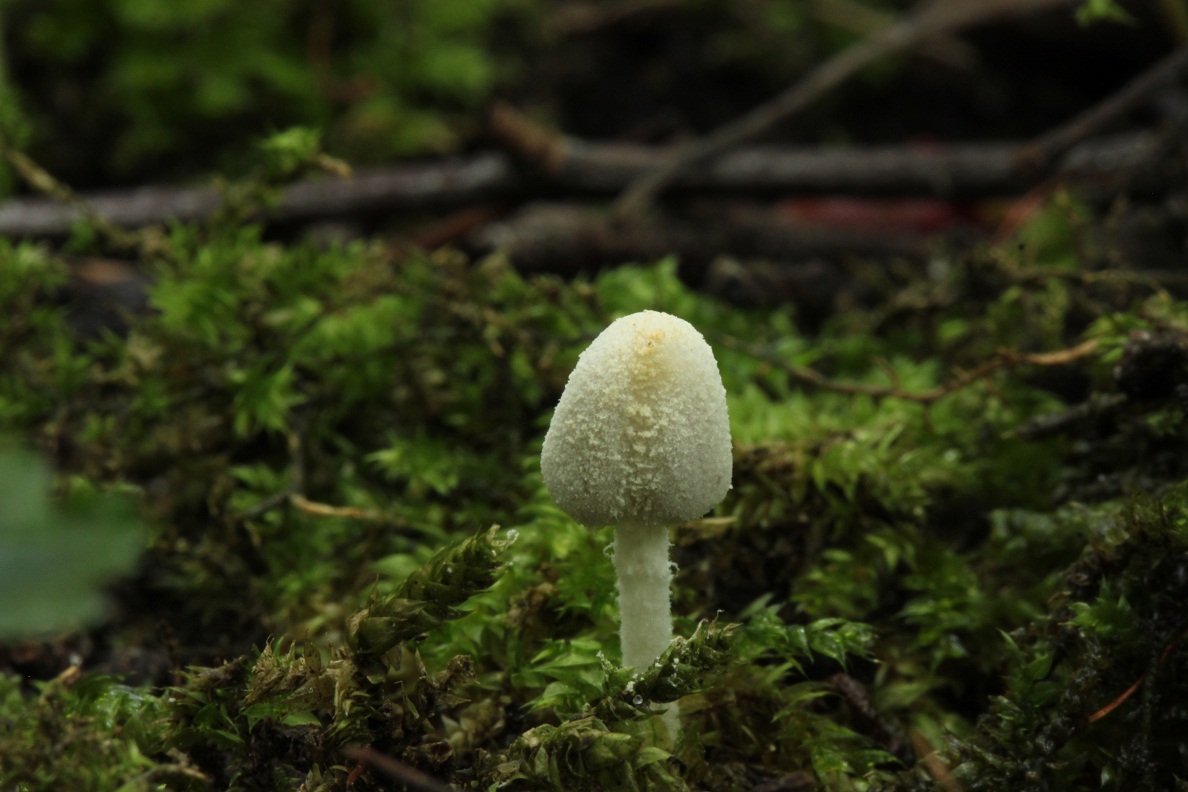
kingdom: Fungi
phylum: Basidiomycota
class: Agaricomycetes
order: Agaricales
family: Psathyrellaceae
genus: Coprinopsis
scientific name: Coprinopsis candidata
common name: hvidklædt blækhat
